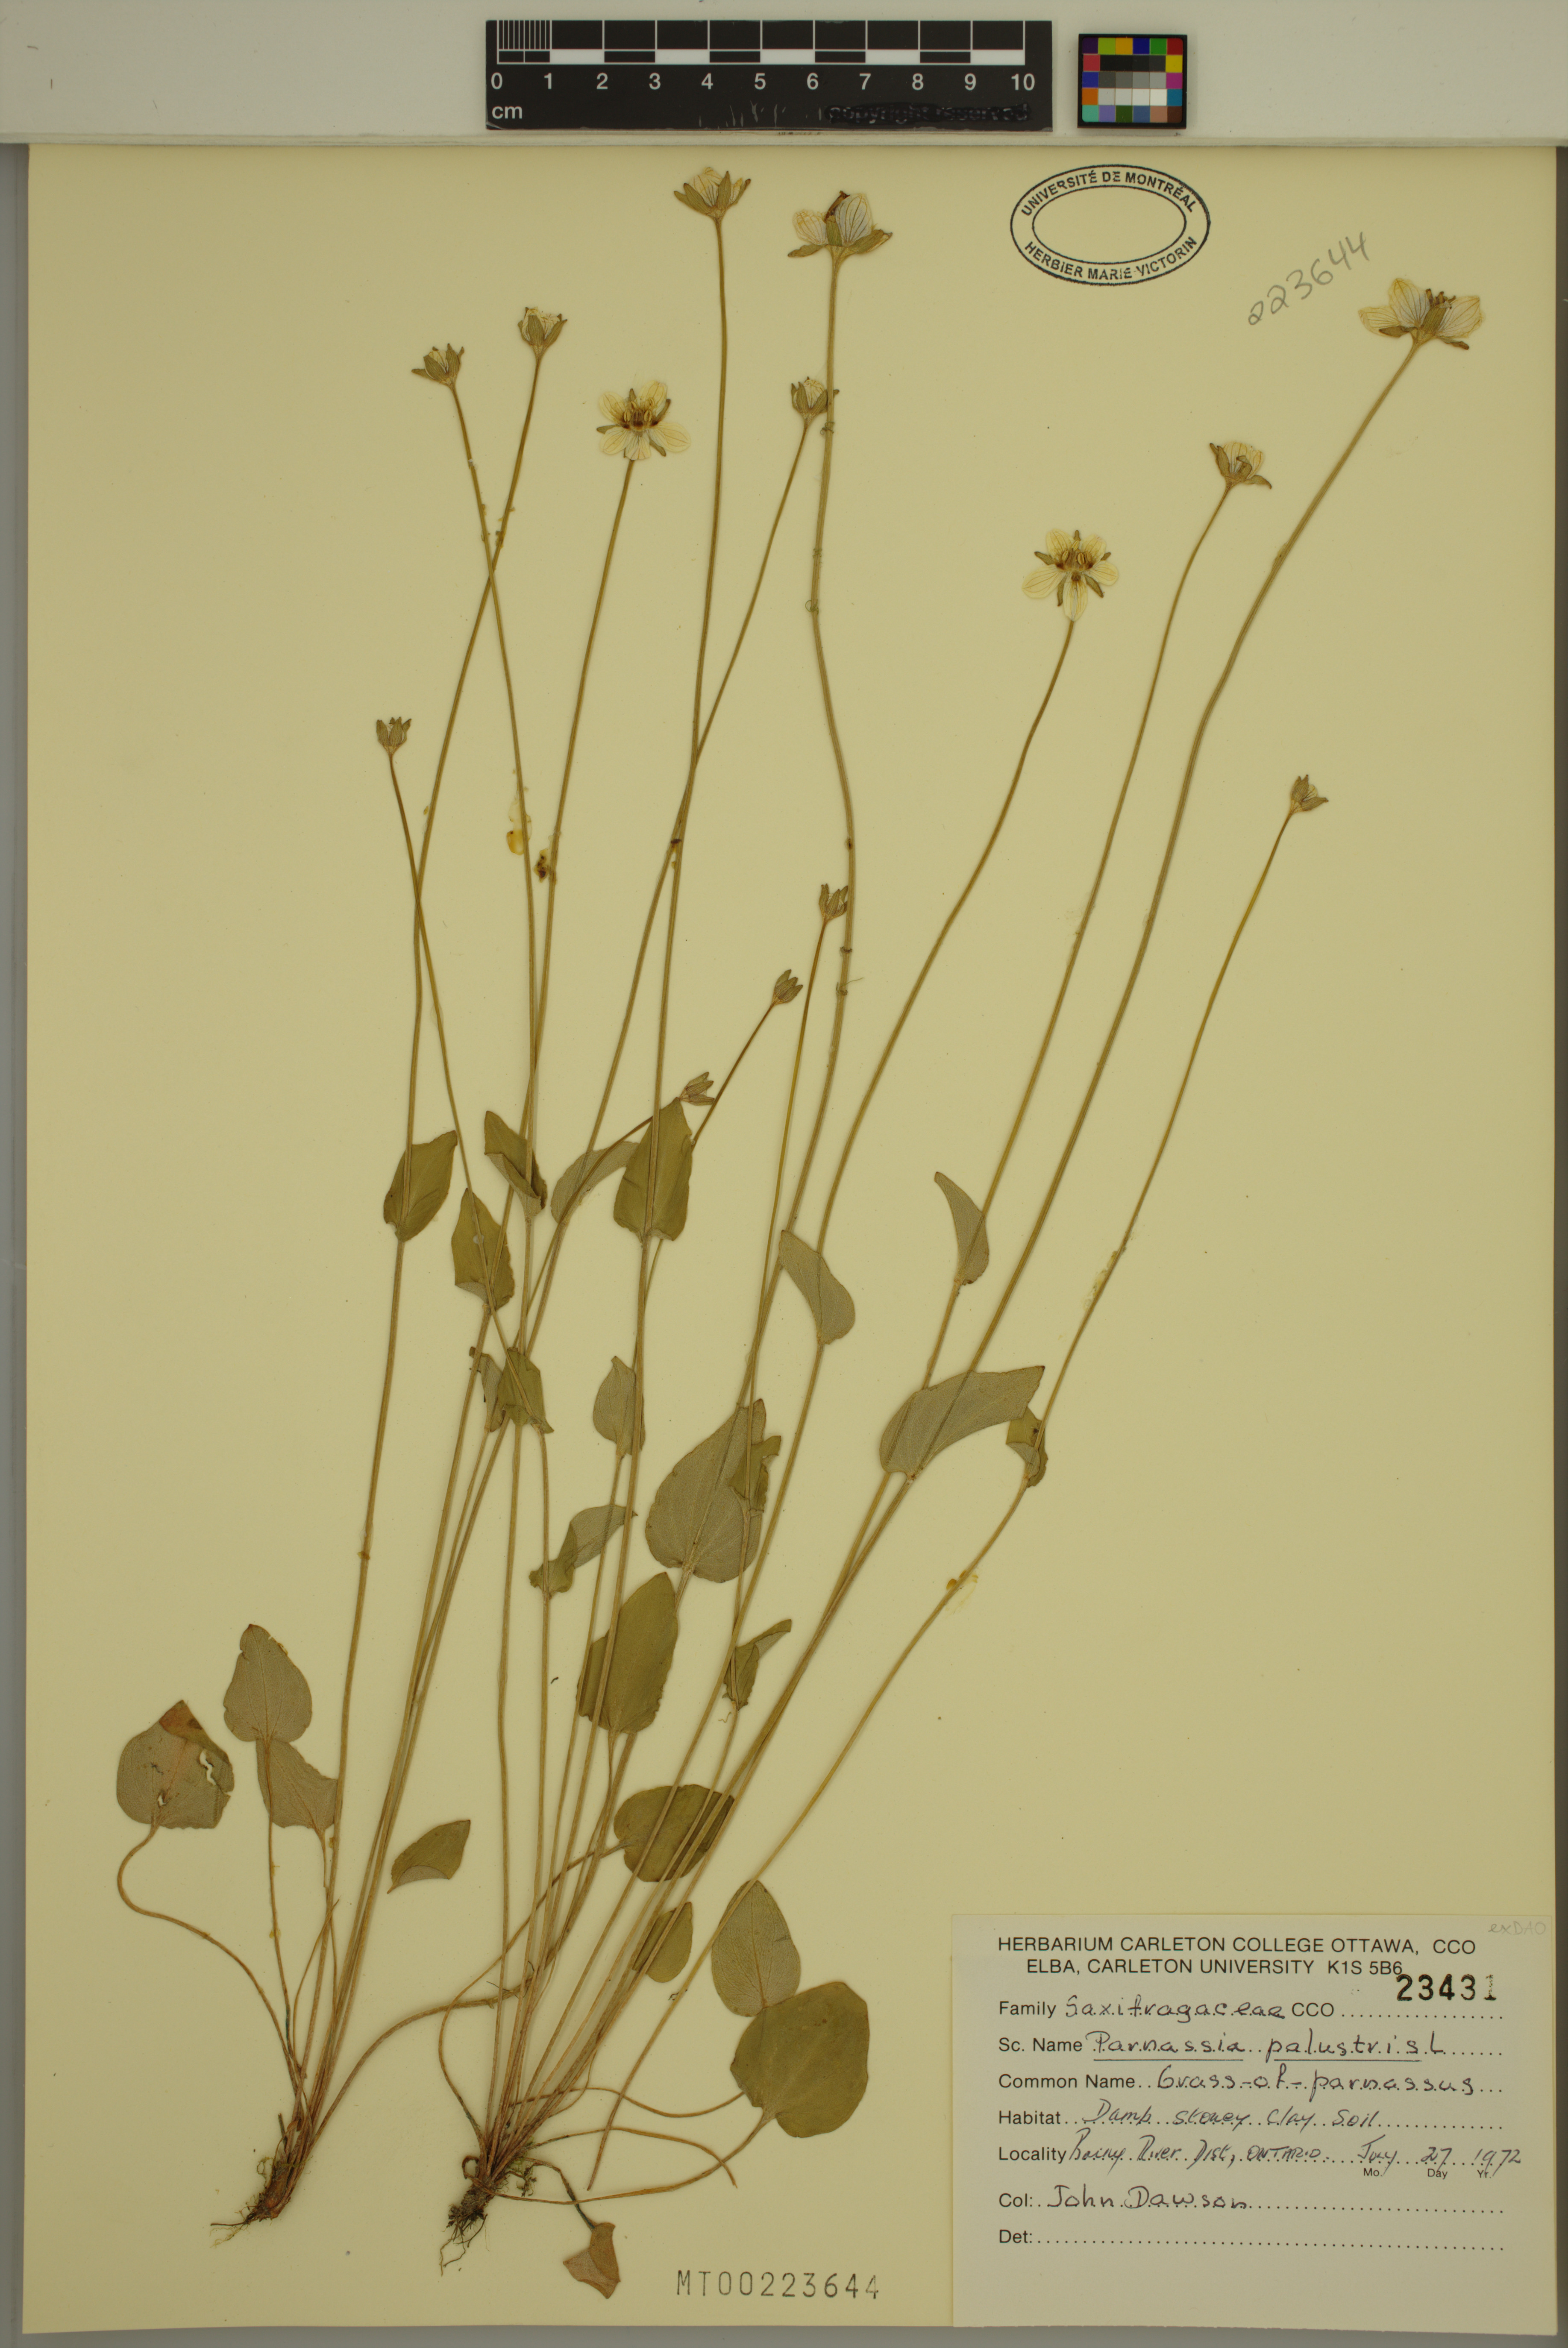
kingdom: Plantae
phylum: Tracheophyta
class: Magnoliopsida
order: Celastrales
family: Parnassiaceae
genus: Parnassia
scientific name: Parnassia palustris
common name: Grass-of-parnassus
